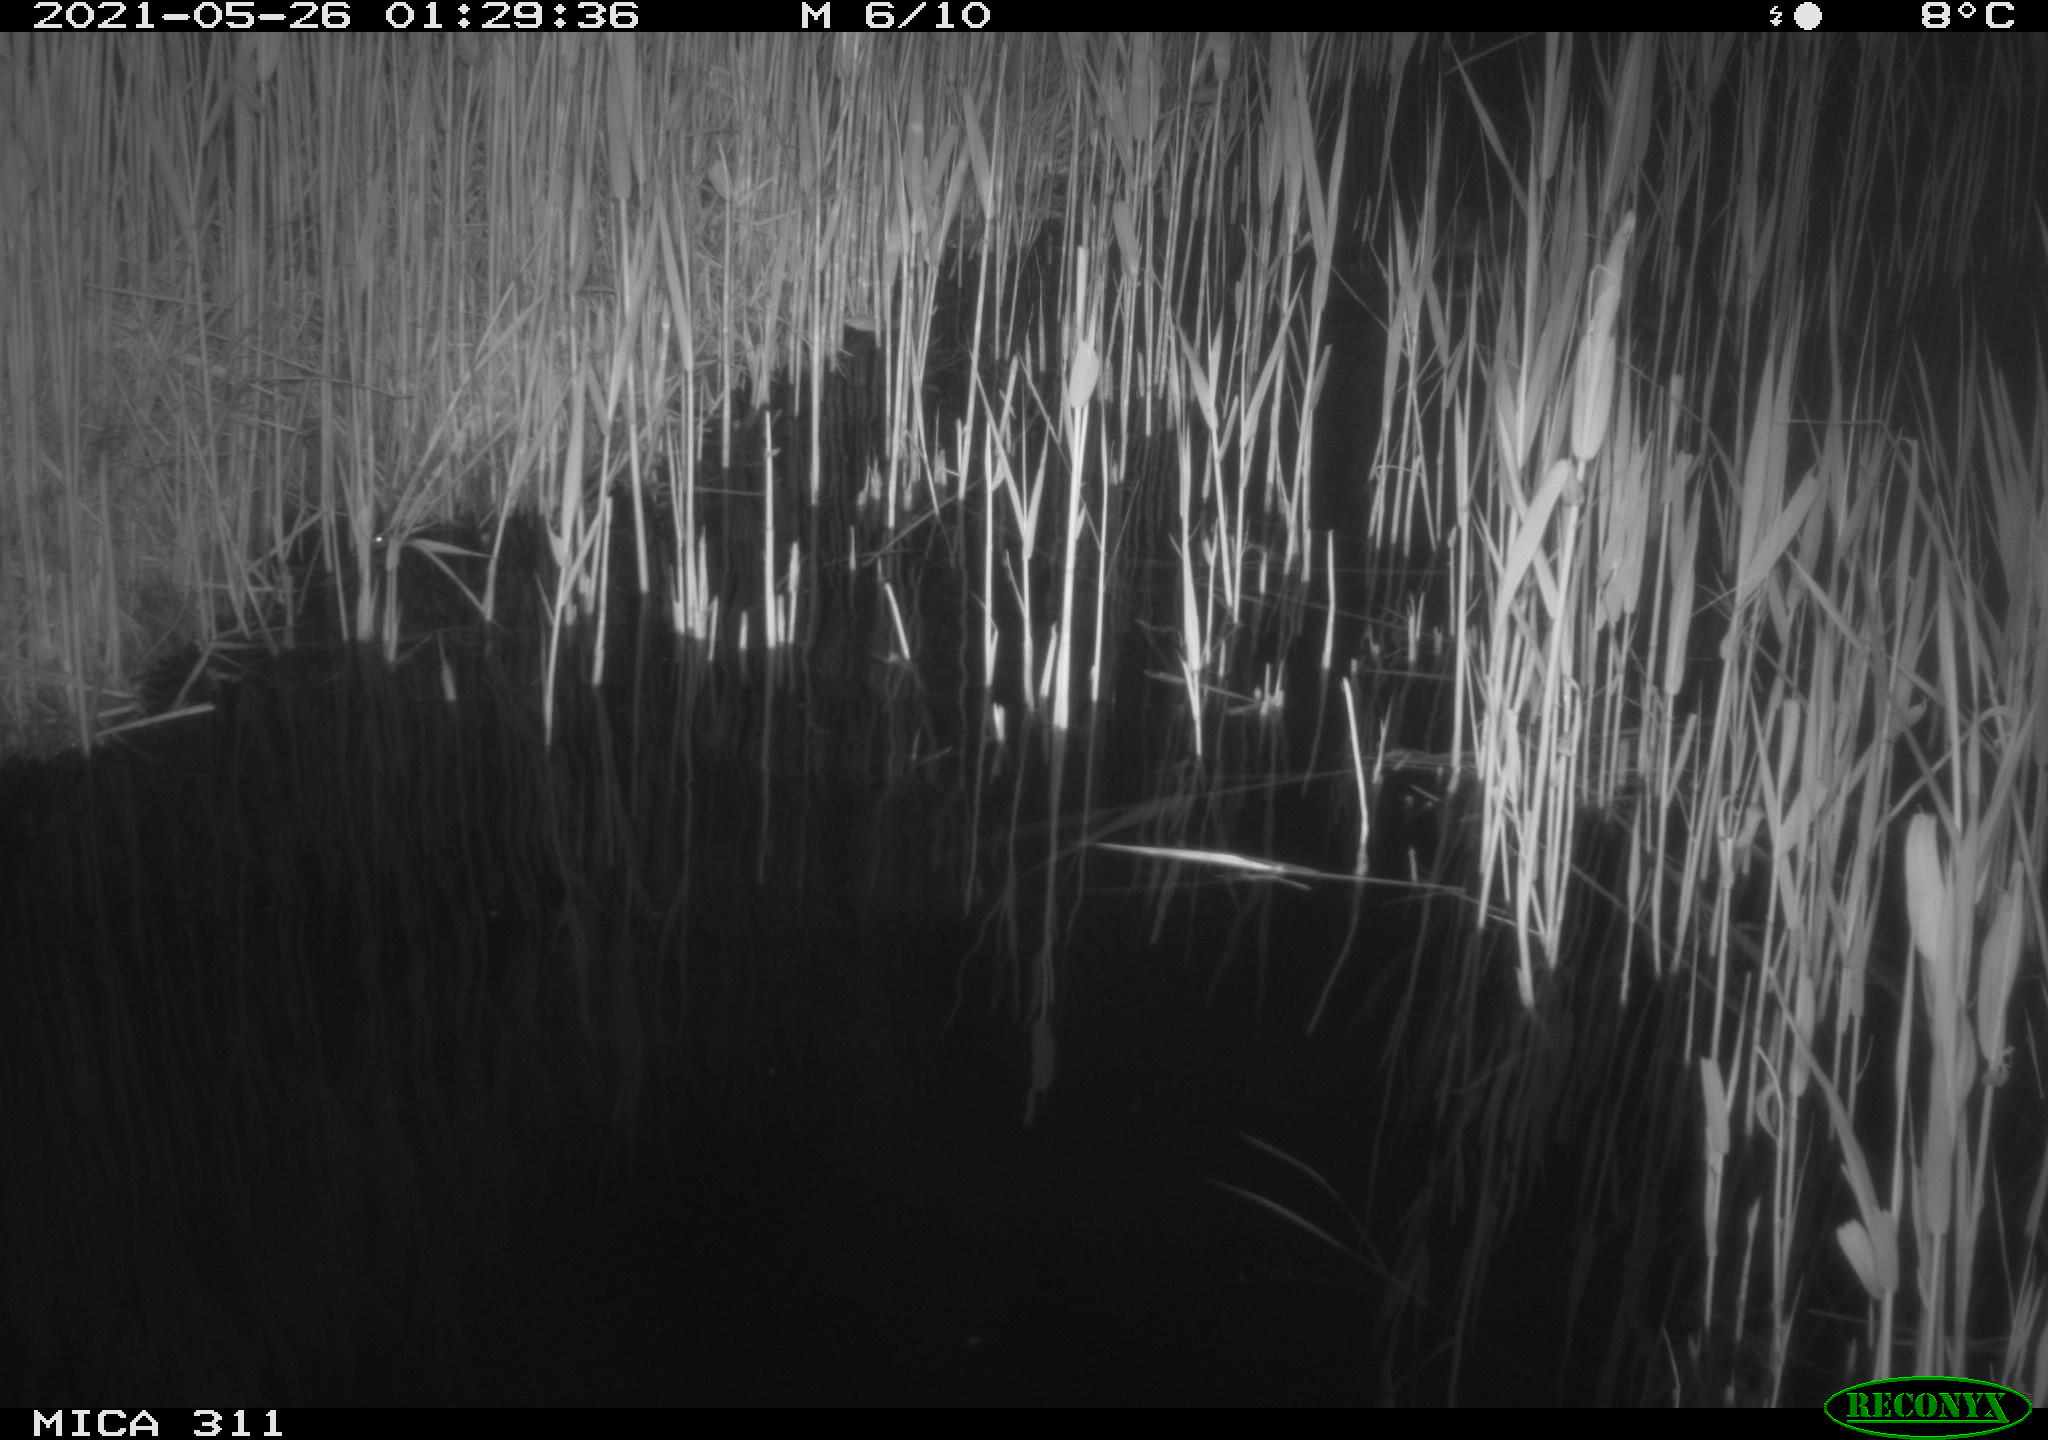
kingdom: Animalia
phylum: Chordata
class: Aves
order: Anseriformes
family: Anatidae
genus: Anas
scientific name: Anas platyrhynchos
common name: Mallard
